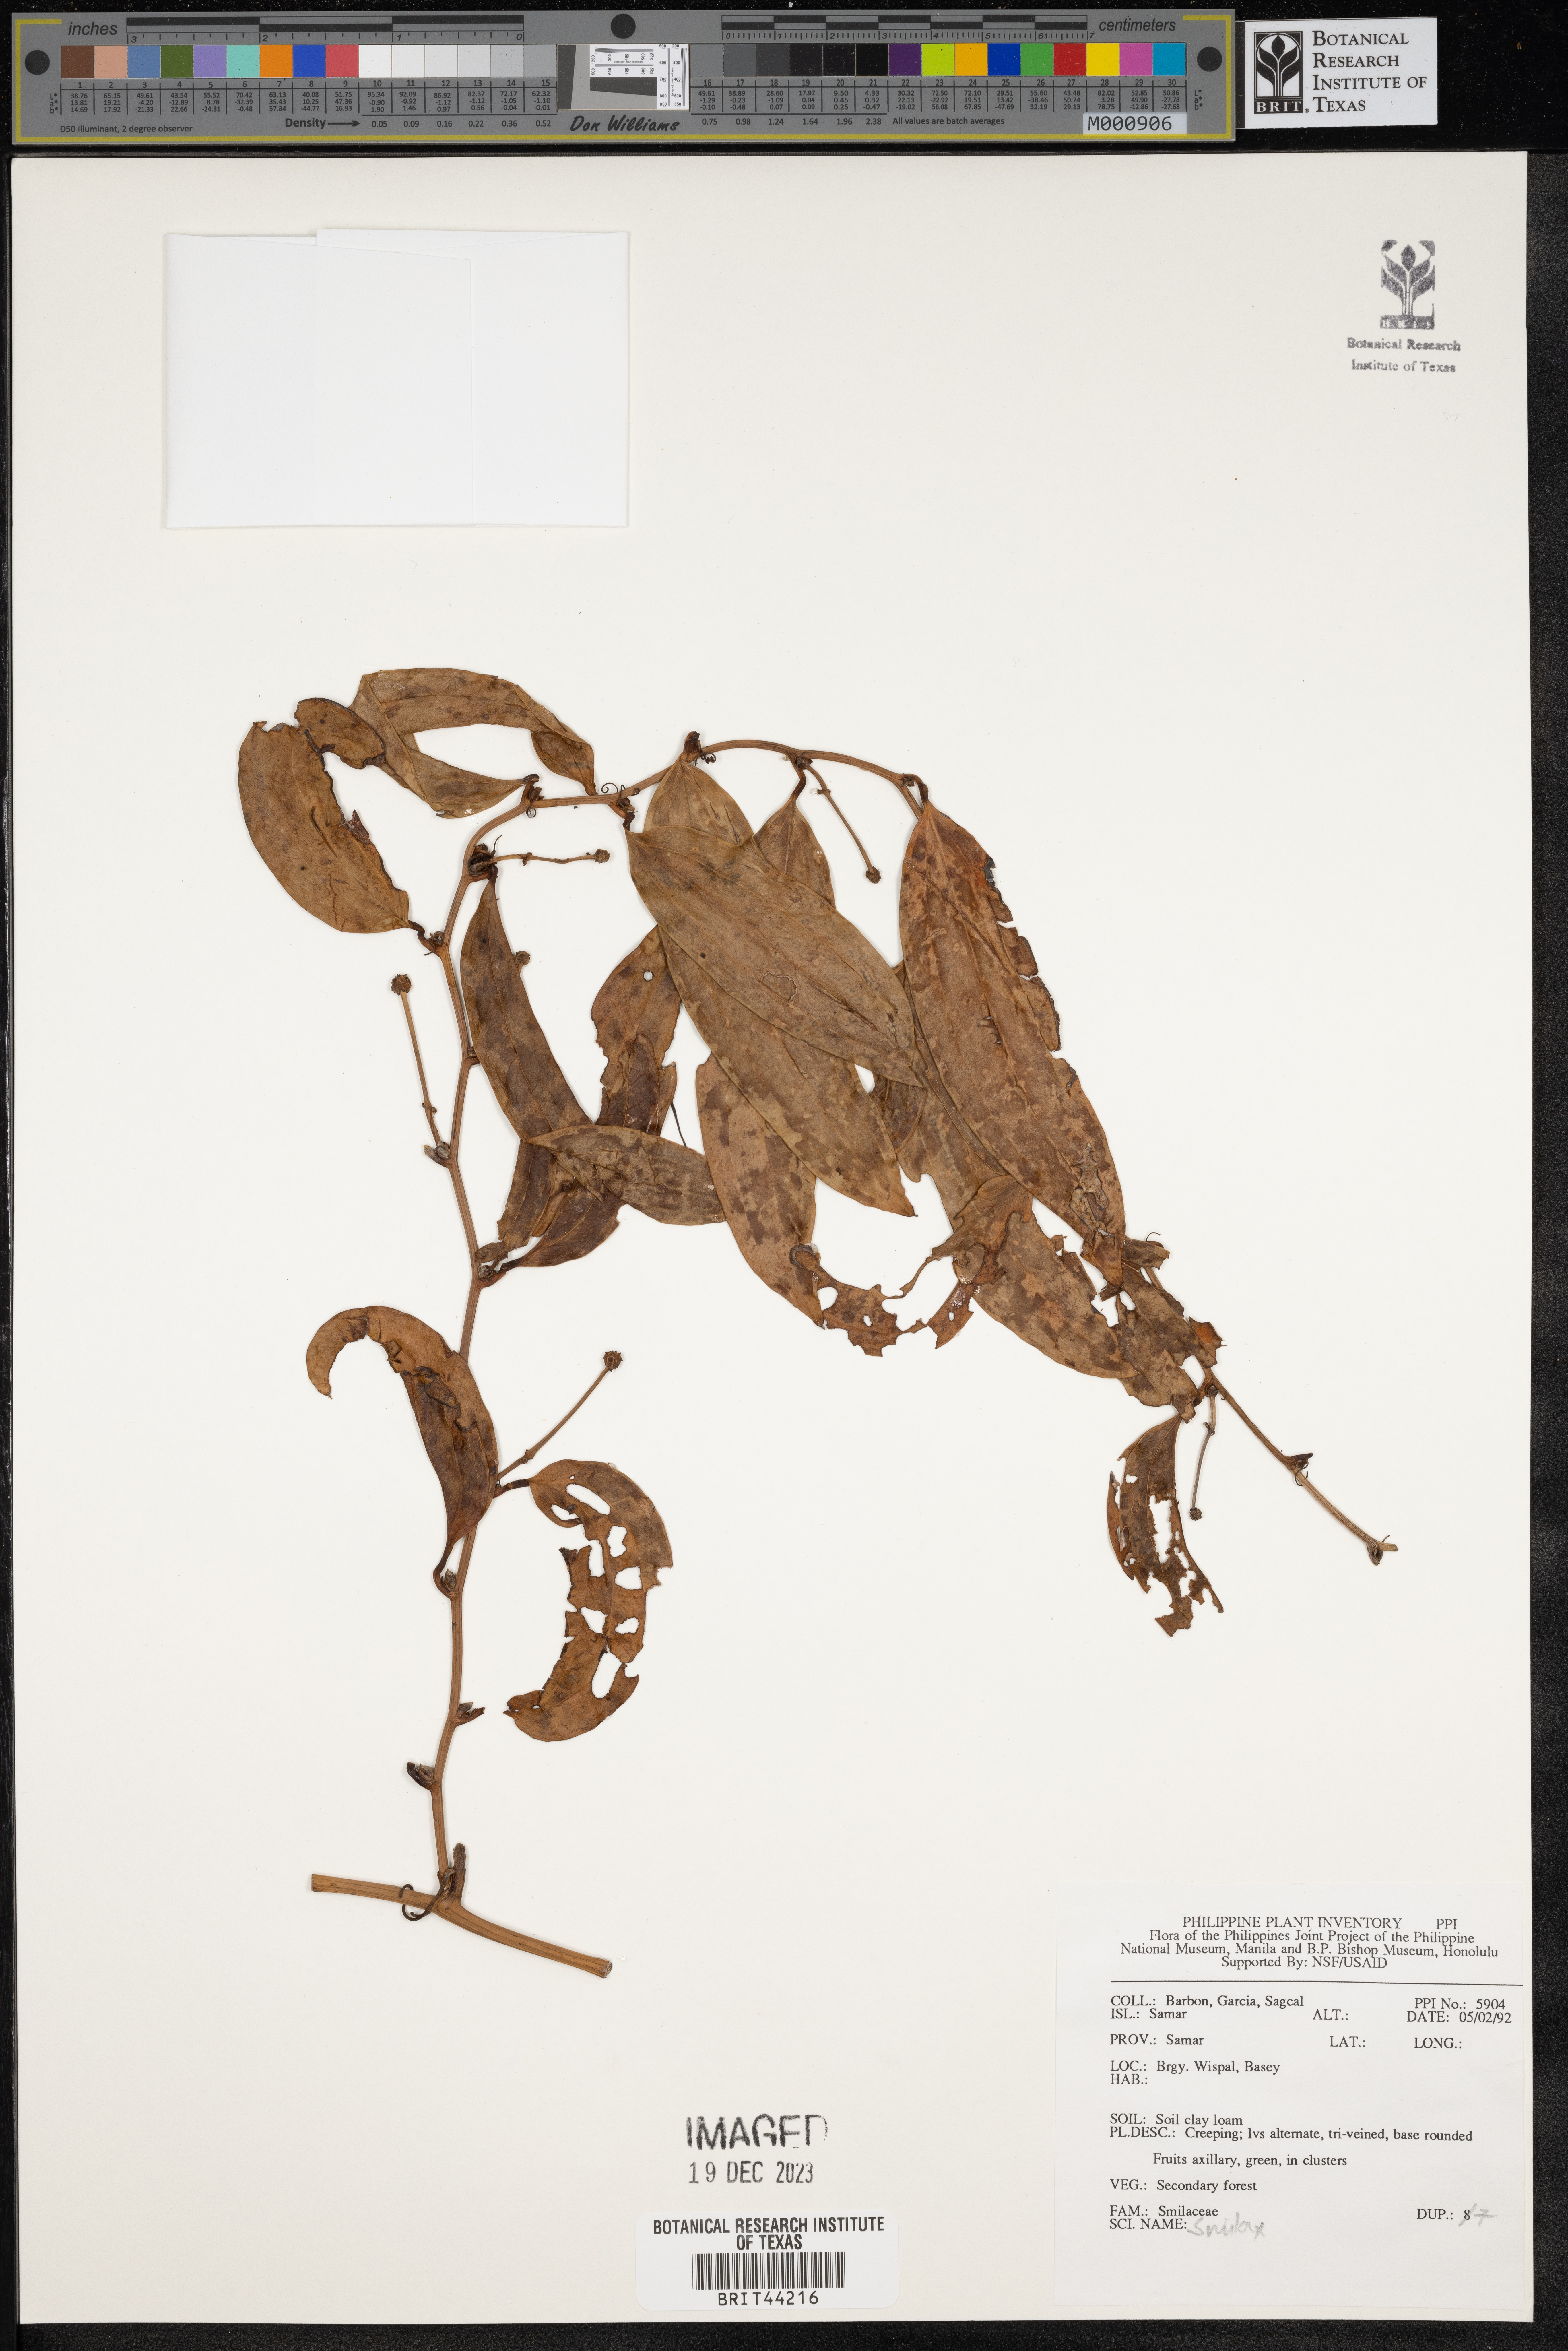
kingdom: Plantae
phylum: Tracheophyta
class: Liliopsida
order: Liliales
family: Smilacaceae
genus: Smilax
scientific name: Smilax
